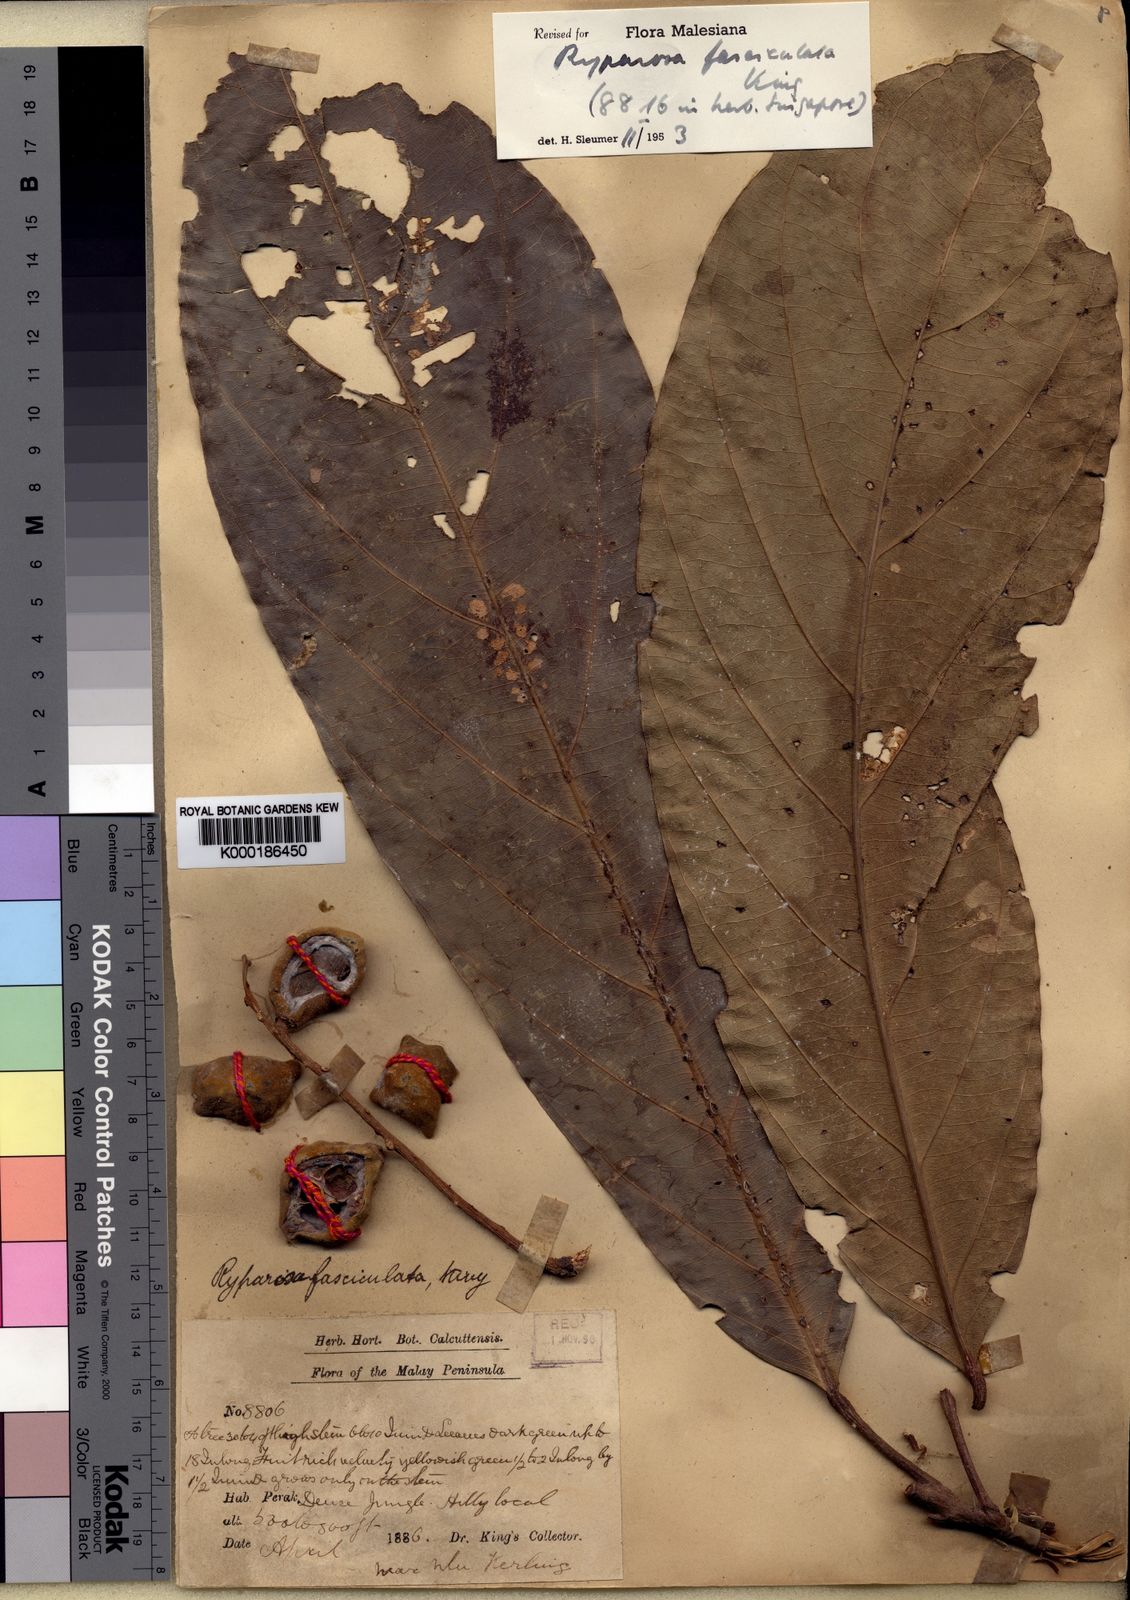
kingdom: Plantae
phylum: Tracheophyta
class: Magnoliopsida
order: Malpighiales
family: Achariaceae
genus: Ryparosa
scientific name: Ryparosa fasciculata
